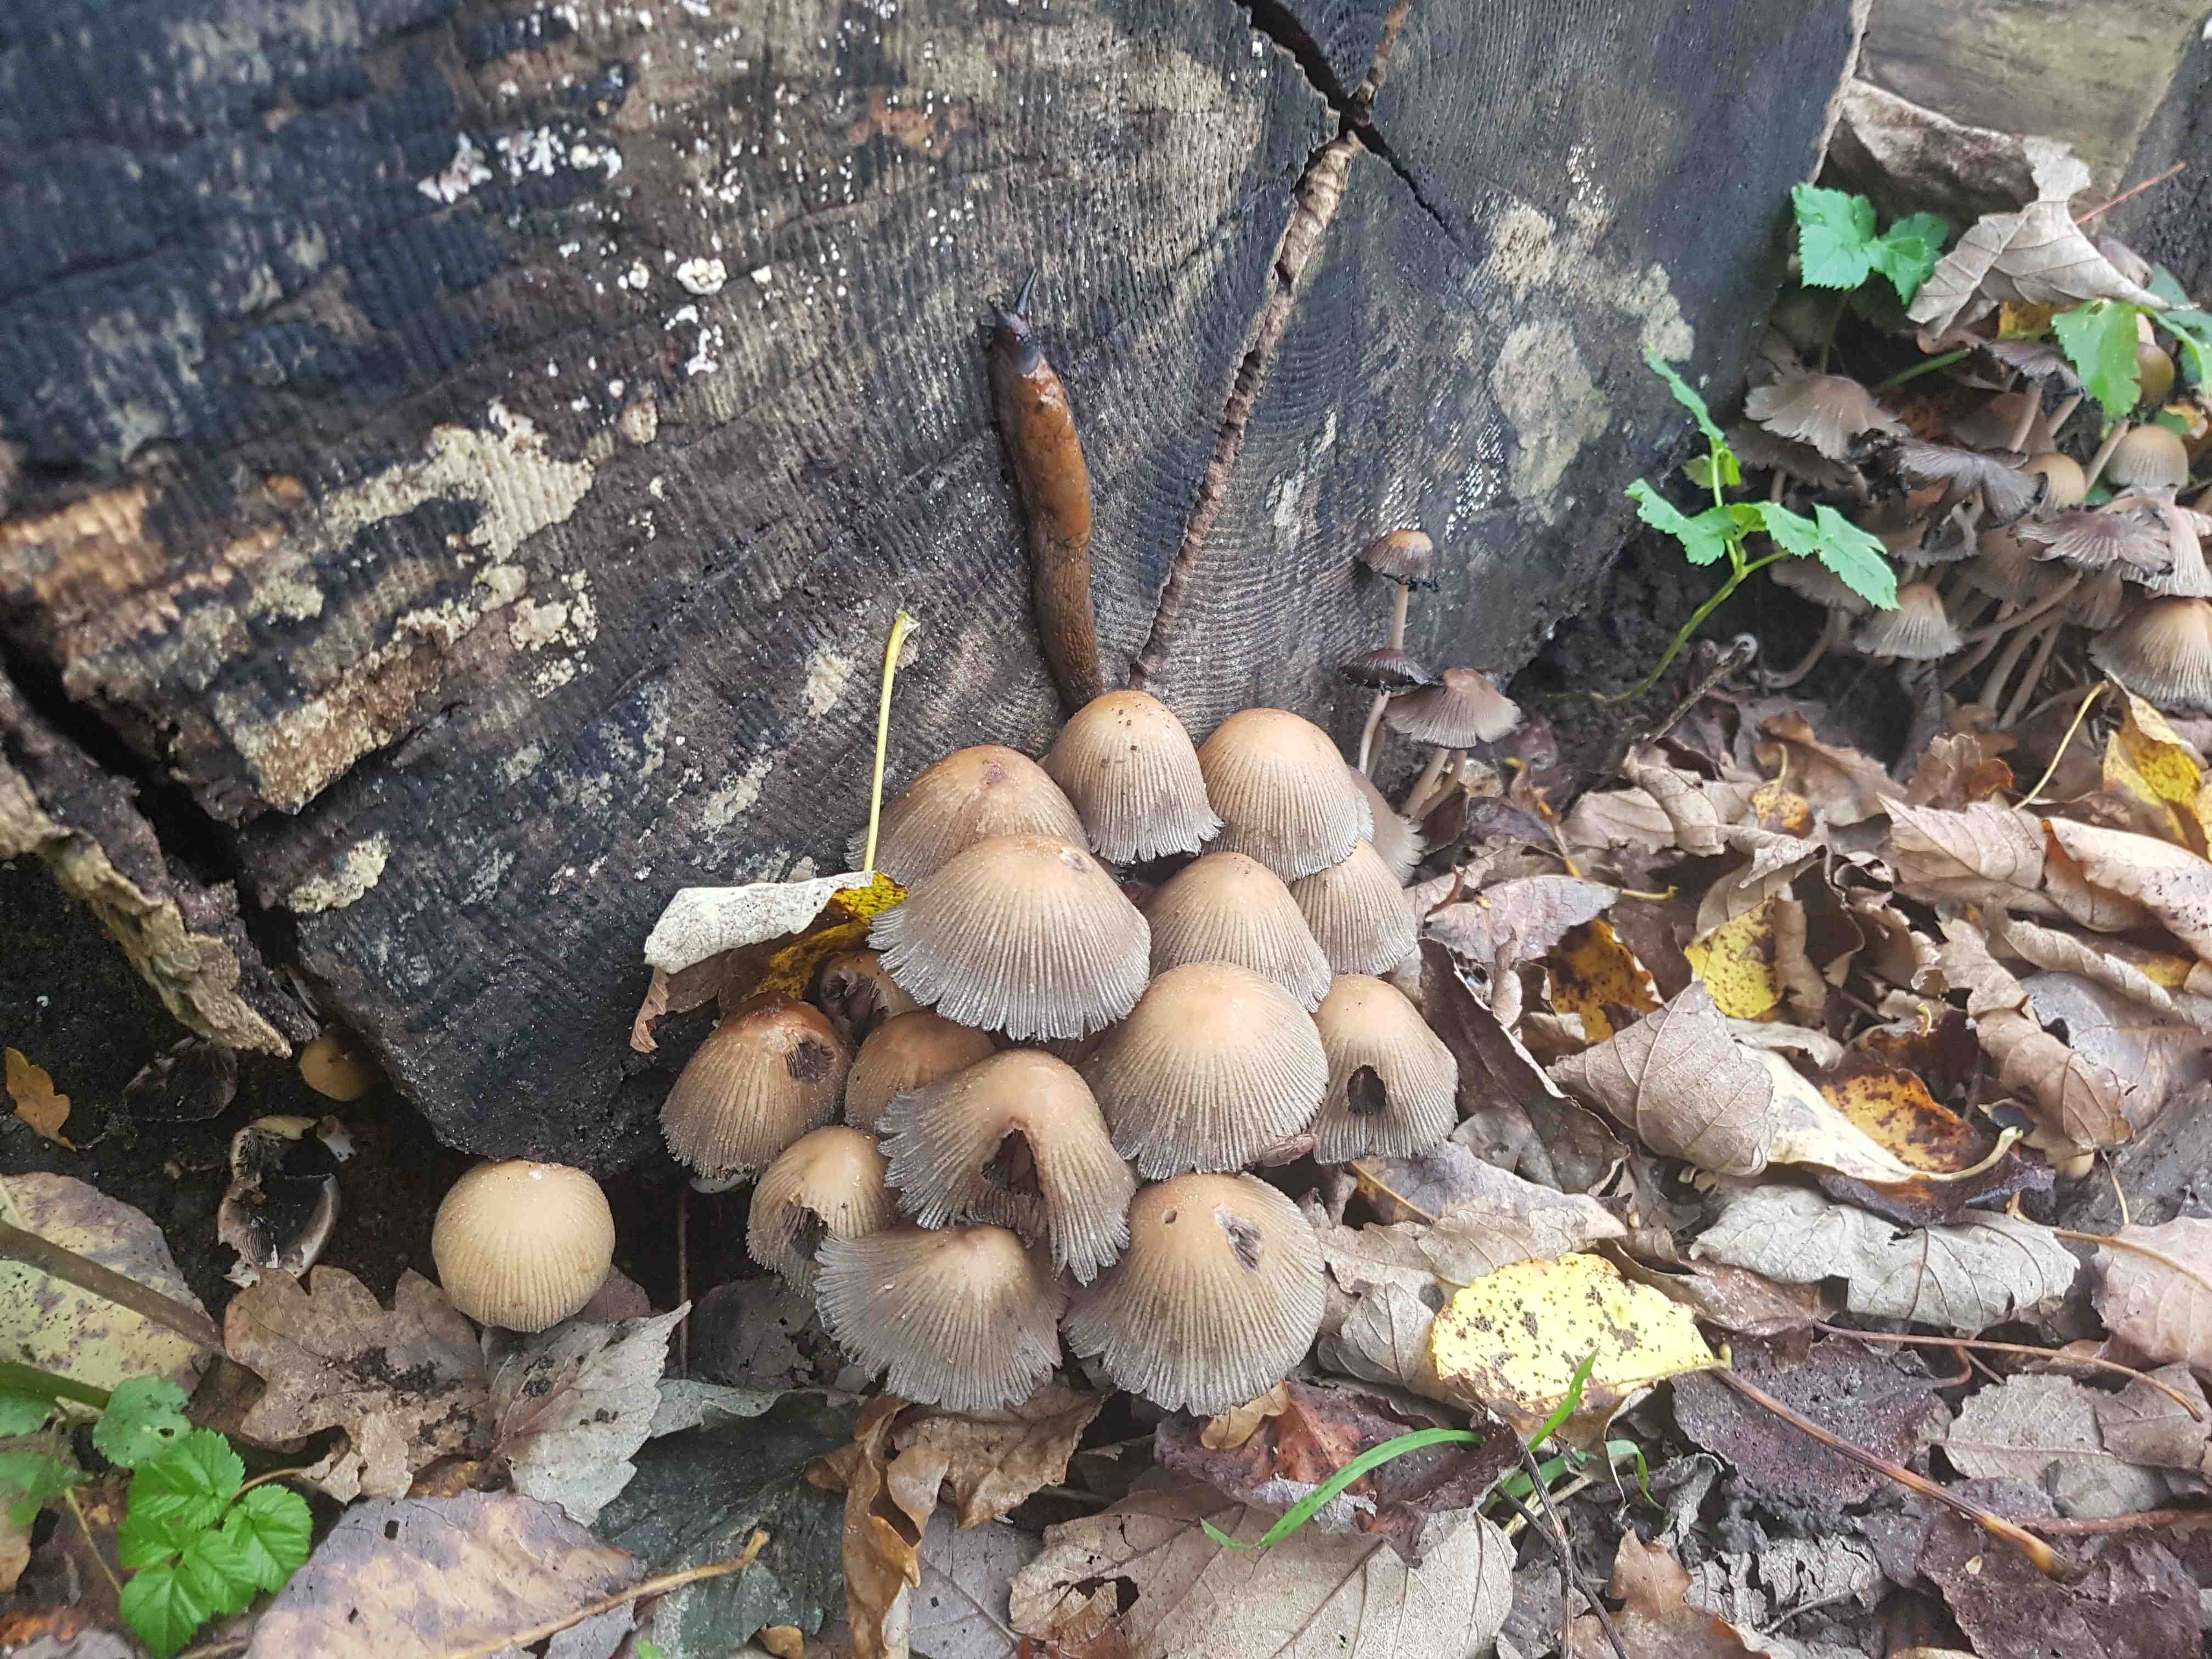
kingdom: Fungi
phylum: Basidiomycota
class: Agaricomycetes
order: Agaricales
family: Psathyrellaceae
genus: Coprinellus
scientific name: Coprinellus micaceus
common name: glimmer-blækhat
